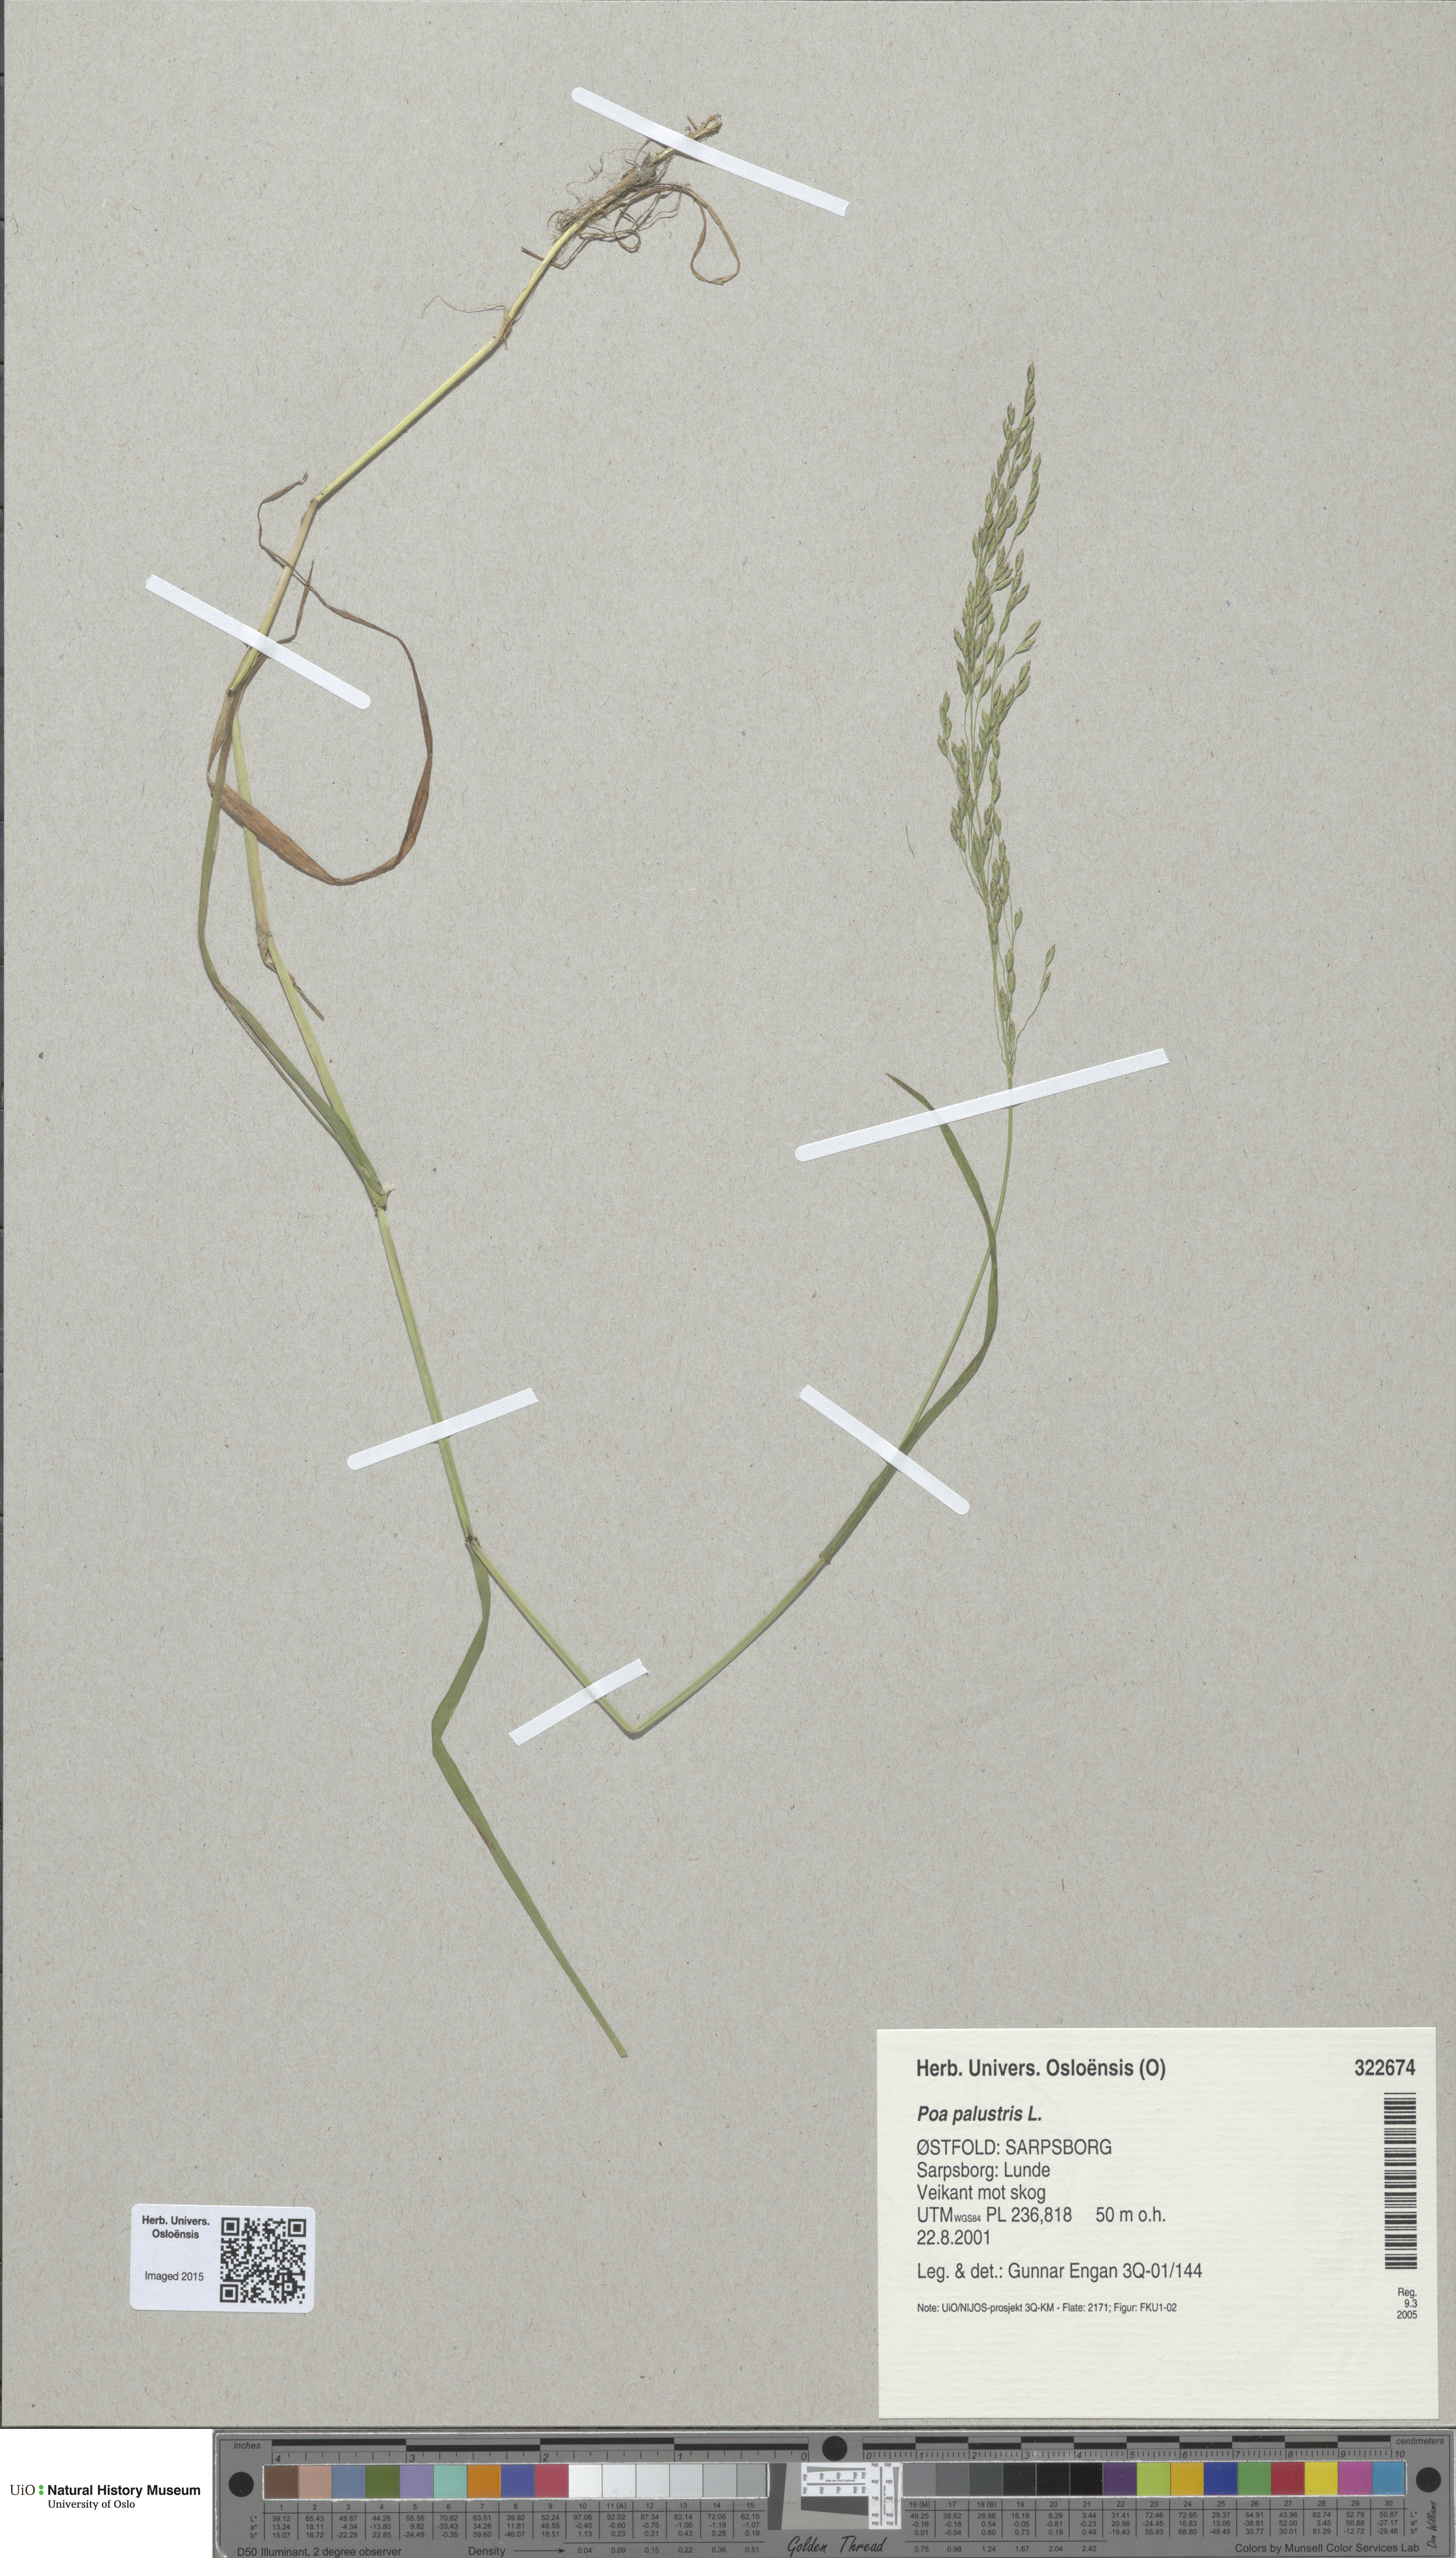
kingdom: Plantae
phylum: Tracheophyta
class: Liliopsida
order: Poales
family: Poaceae
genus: Poa
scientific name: Poa palustris
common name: Swamp meadow-grass
